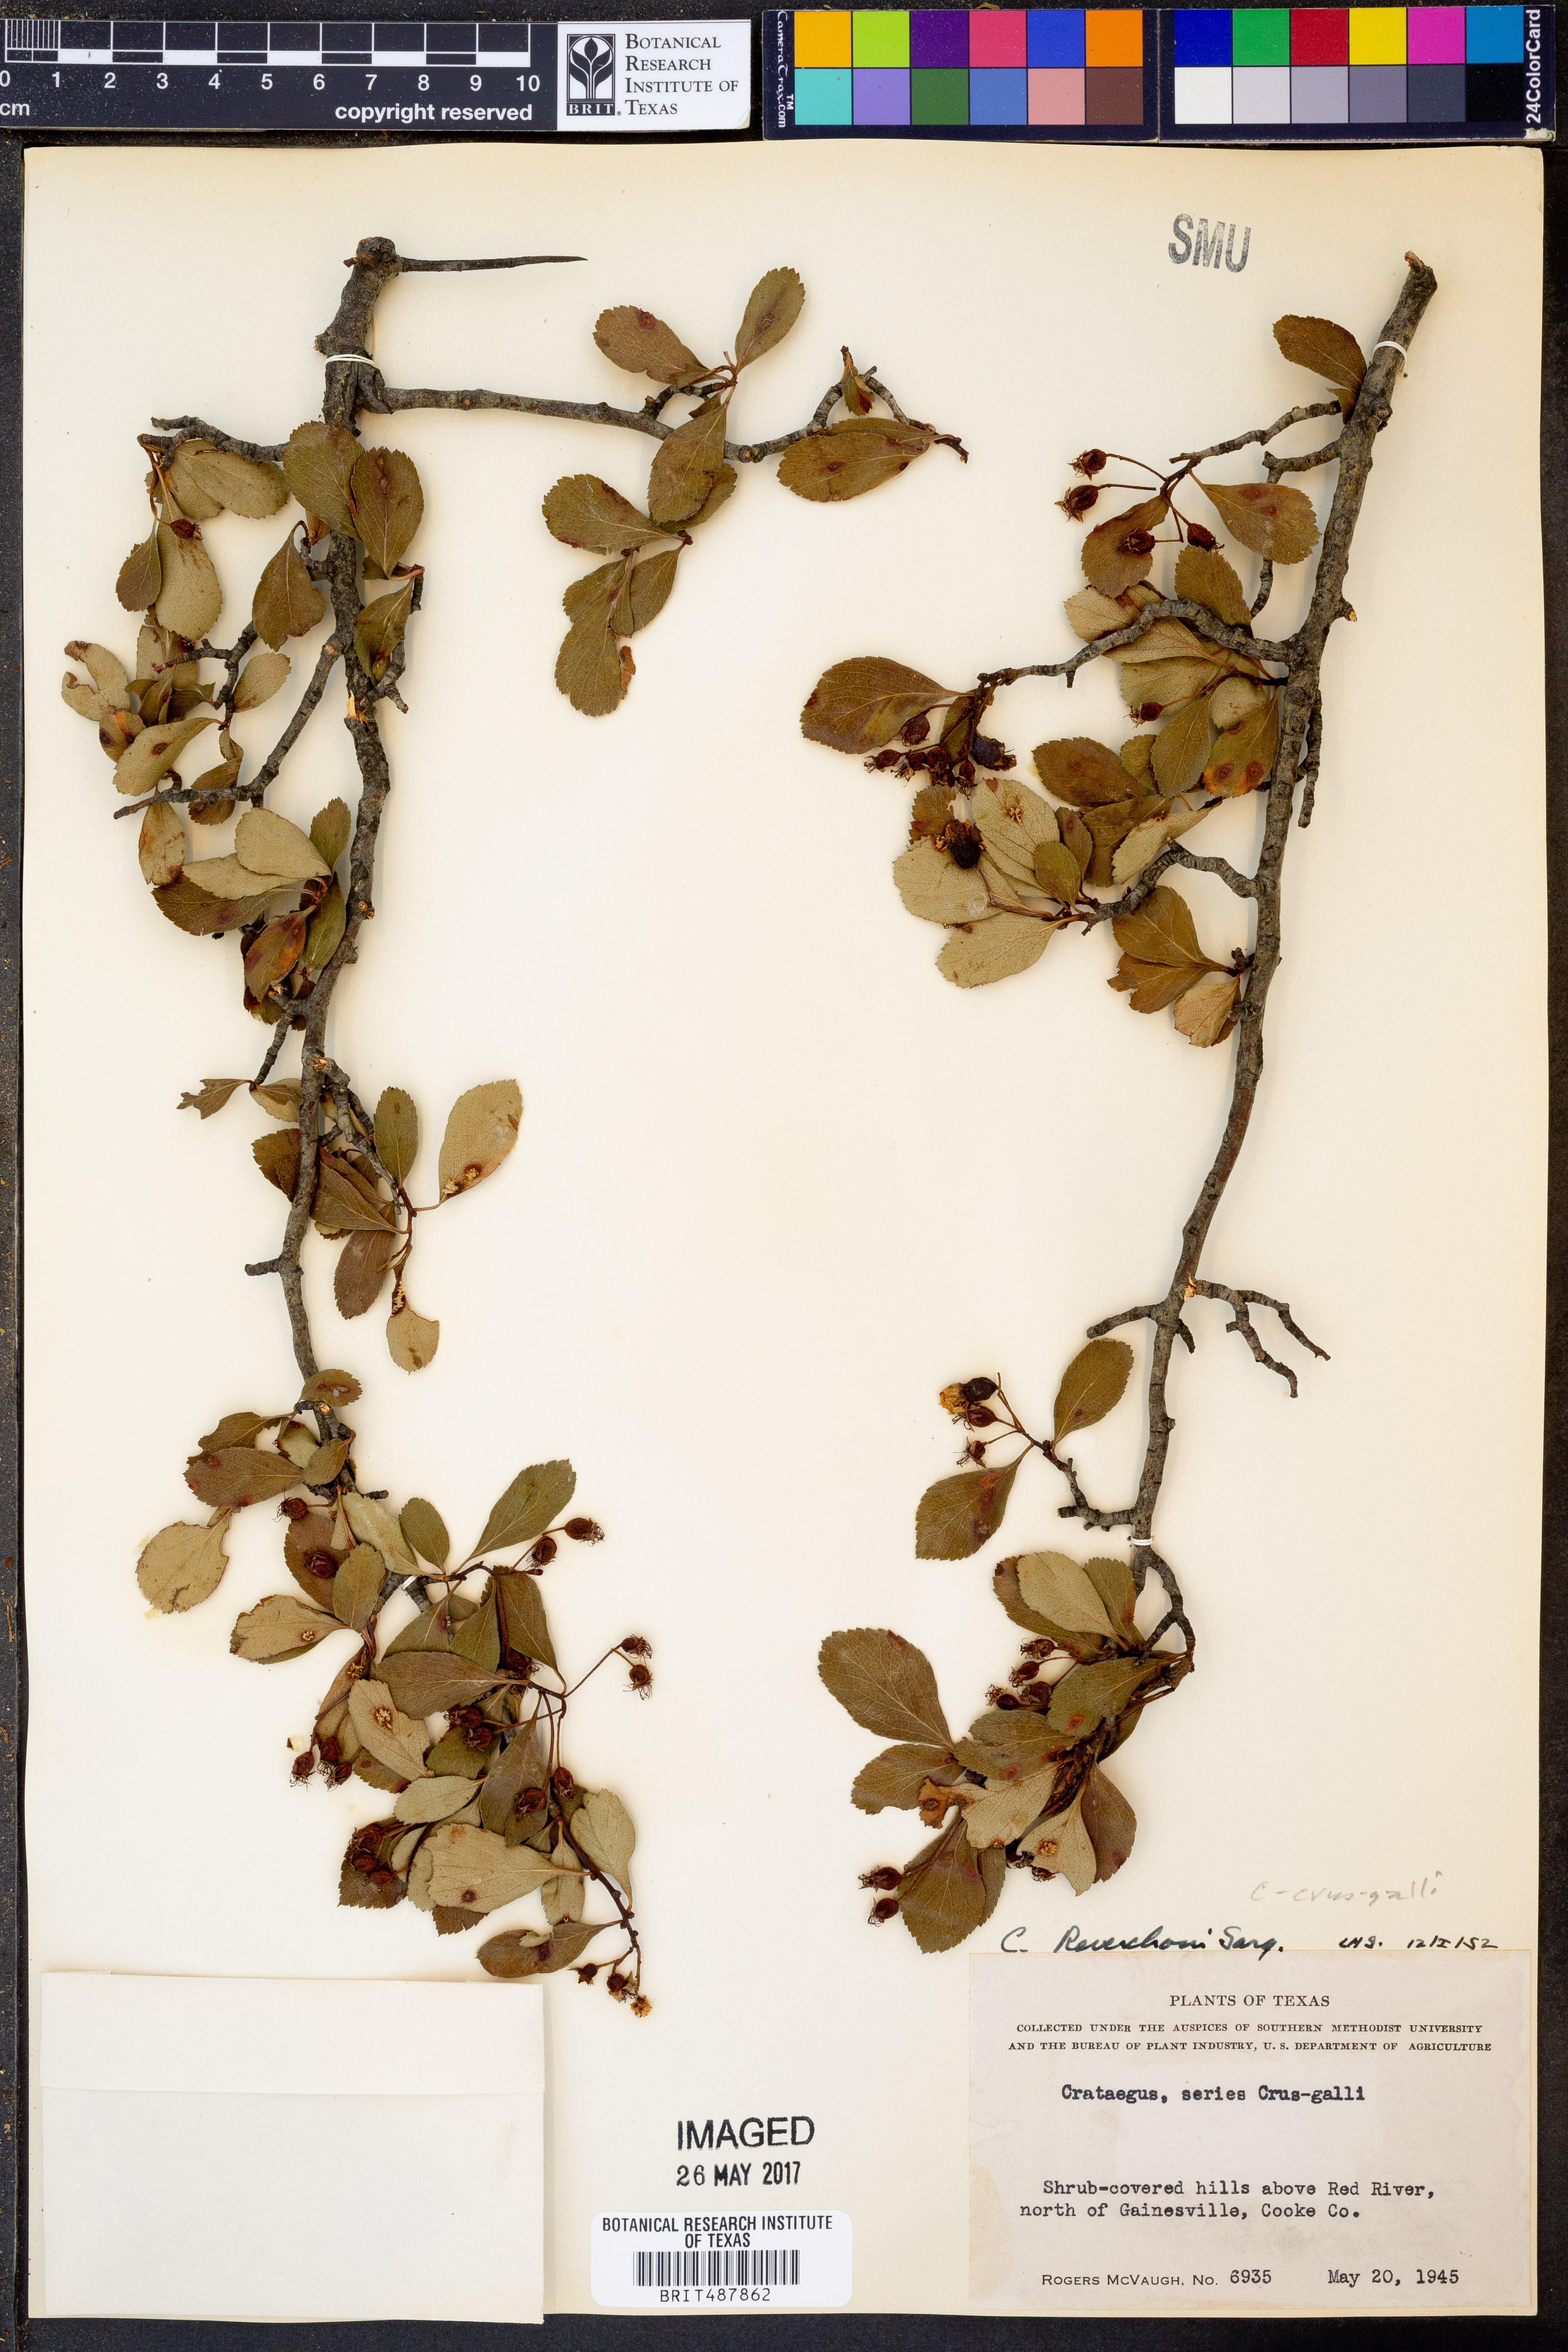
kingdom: Plantae
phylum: Tracheophyta
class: Magnoliopsida
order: Rosales
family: Rosaceae
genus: Crataegus
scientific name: Crataegus reverchonii
